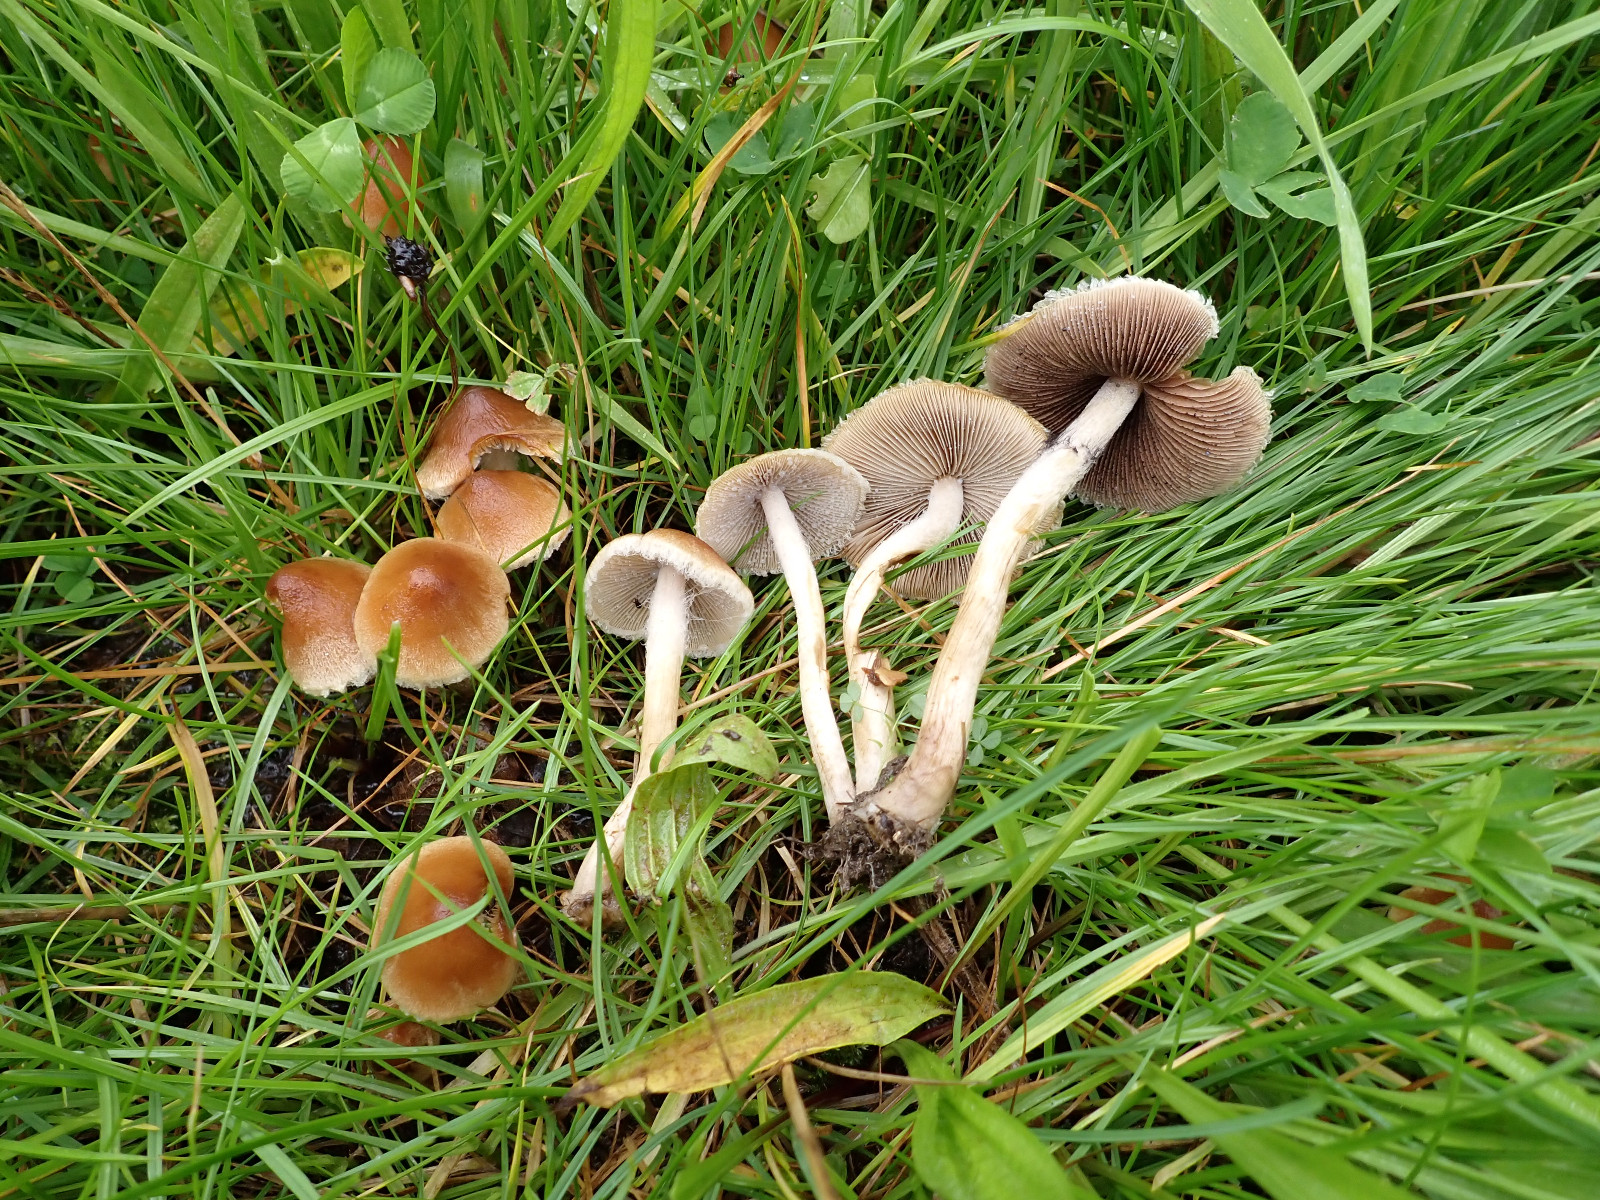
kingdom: Fungi
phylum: Basidiomycota
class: Agaricomycetes
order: Agaricales
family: Psathyrellaceae
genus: Lacrymaria
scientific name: Lacrymaria lacrymabunda
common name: grædende mørkhat
